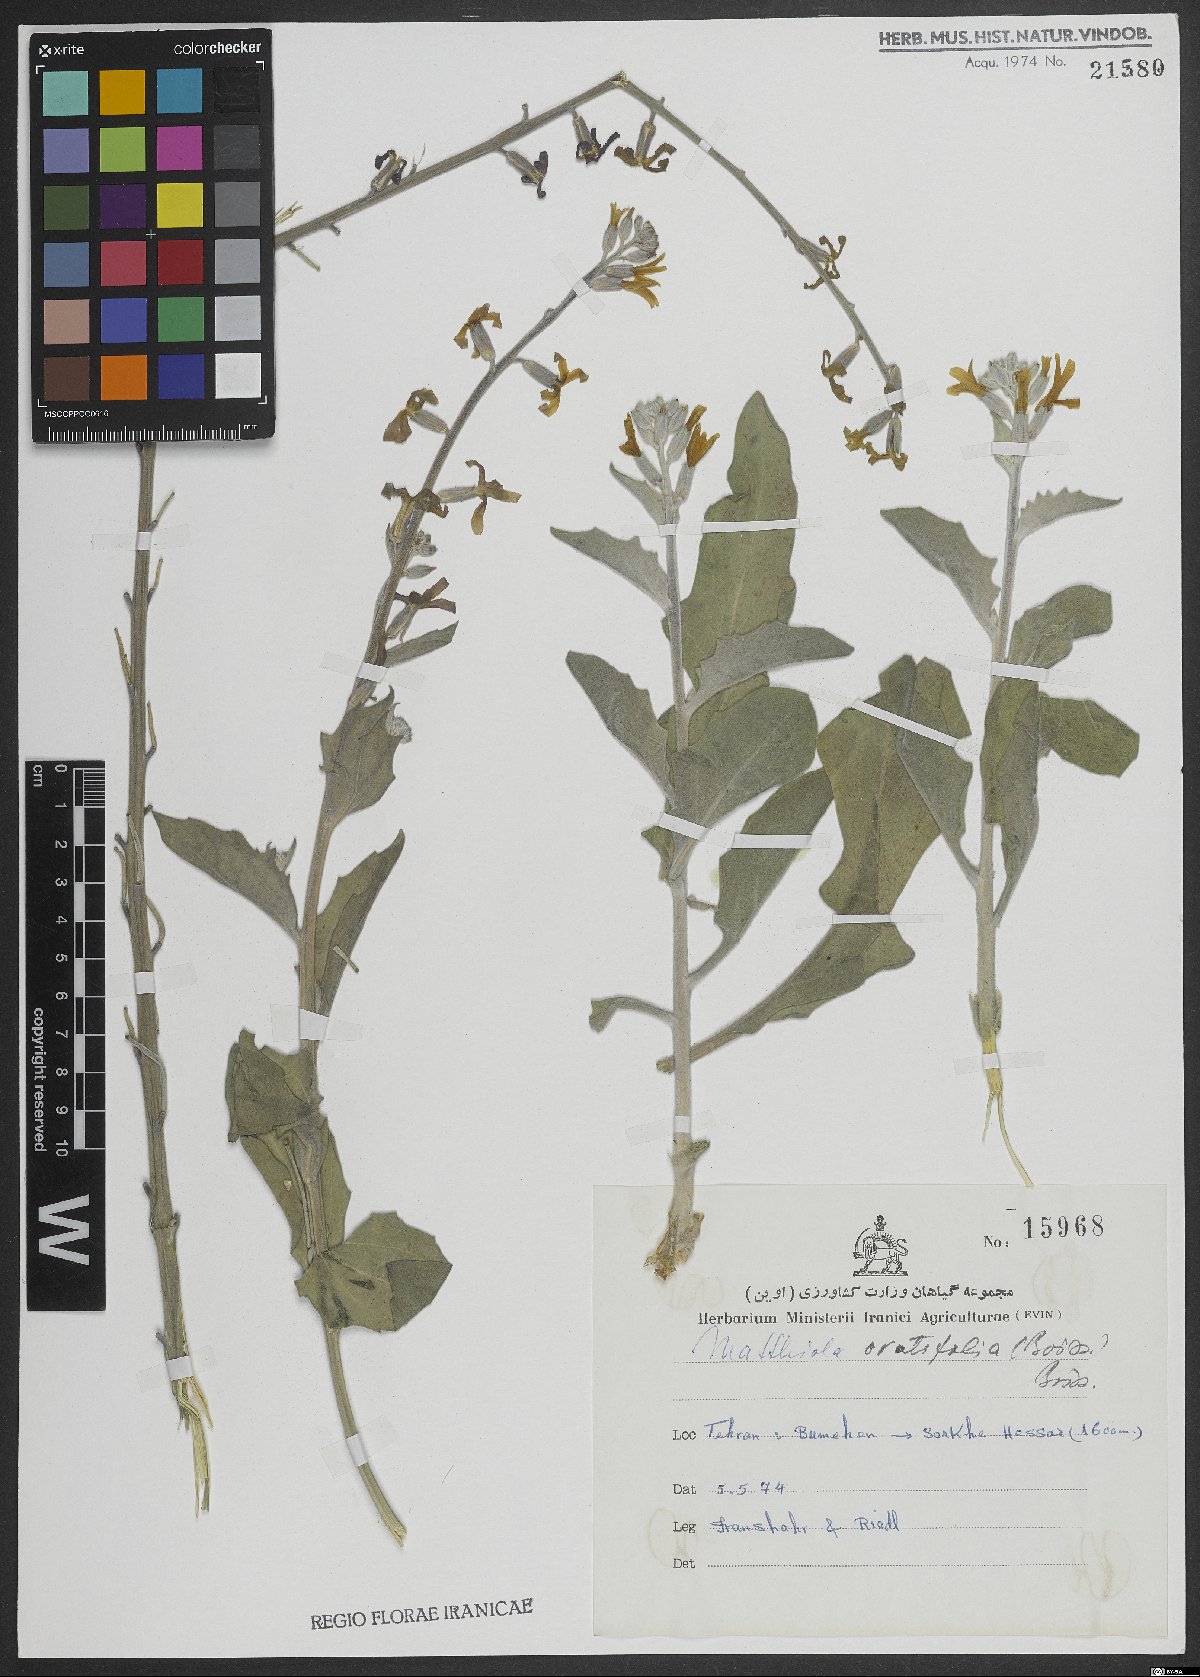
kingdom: Plantae
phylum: Tracheophyta
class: Magnoliopsida
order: Brassicales
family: Brassicaceae
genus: Matthiola
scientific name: Matthiola ovatifolia
